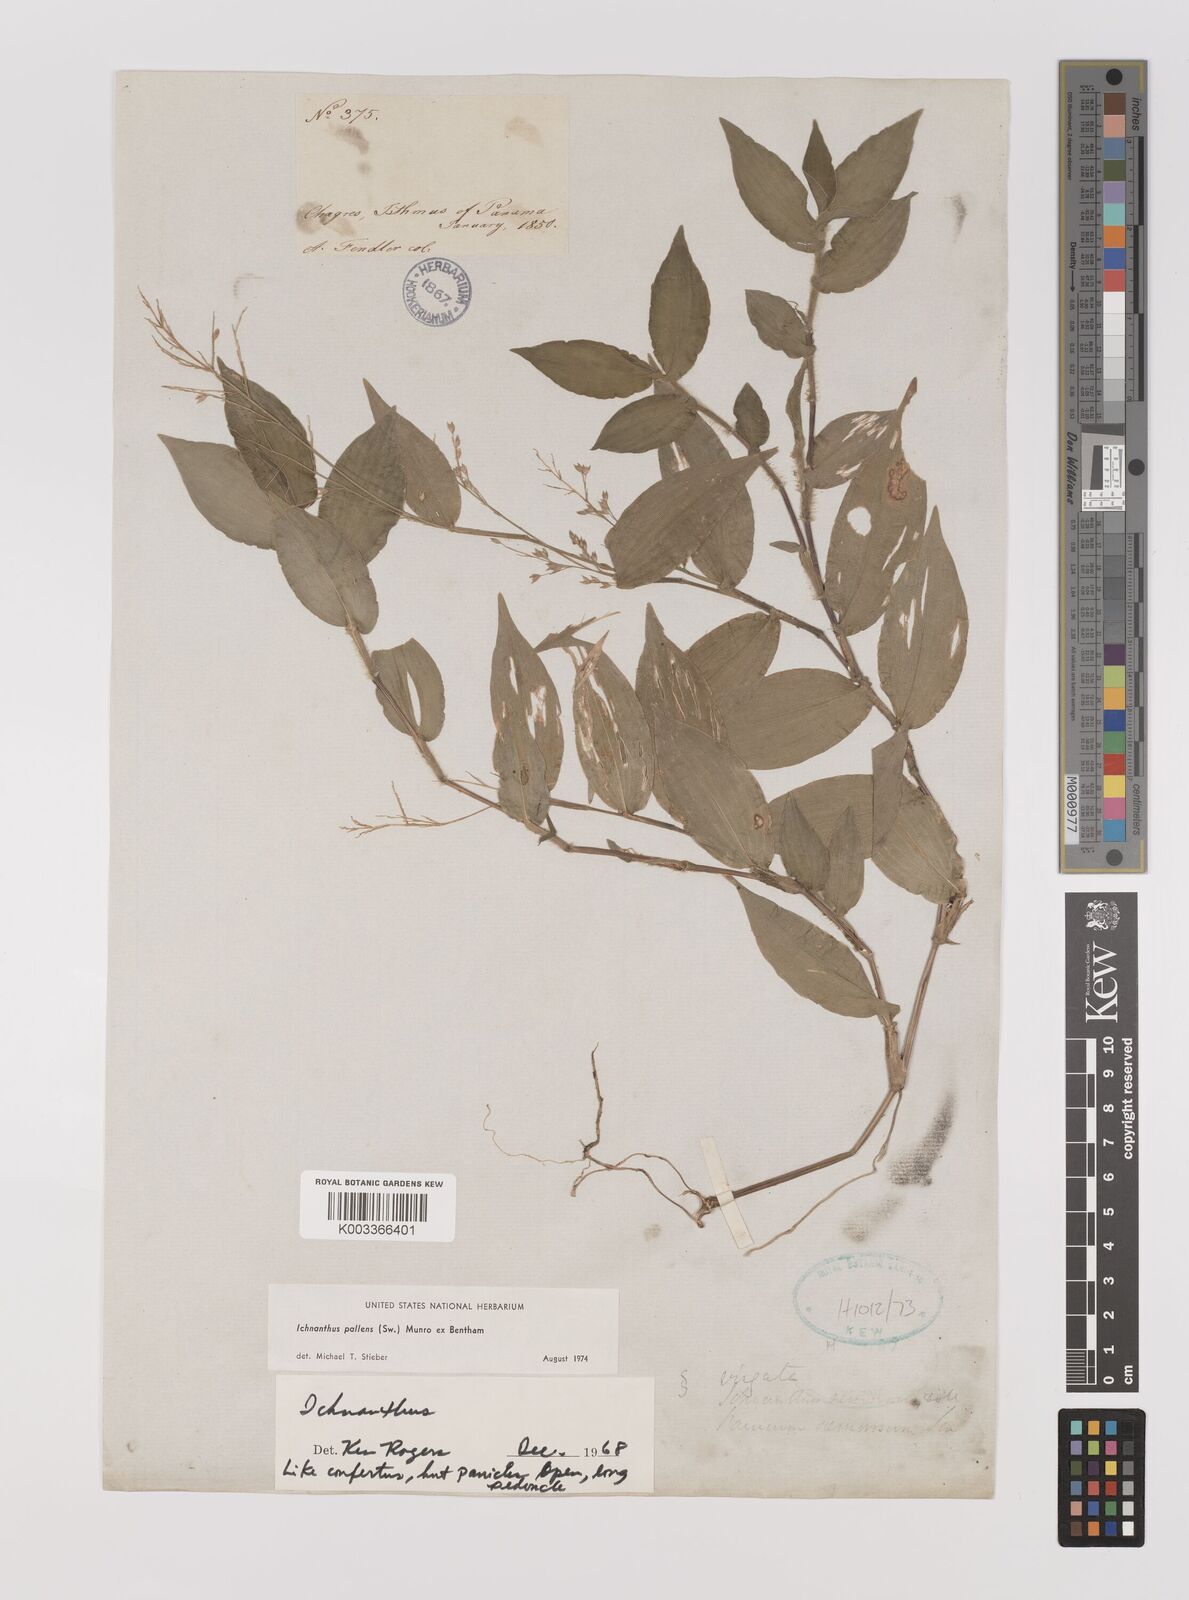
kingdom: Plantae
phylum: Tracheophyta
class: Liliopsida
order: Poales
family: Poaceae
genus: Ichnanthus
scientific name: Ichnanthus pallens
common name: Water grass
